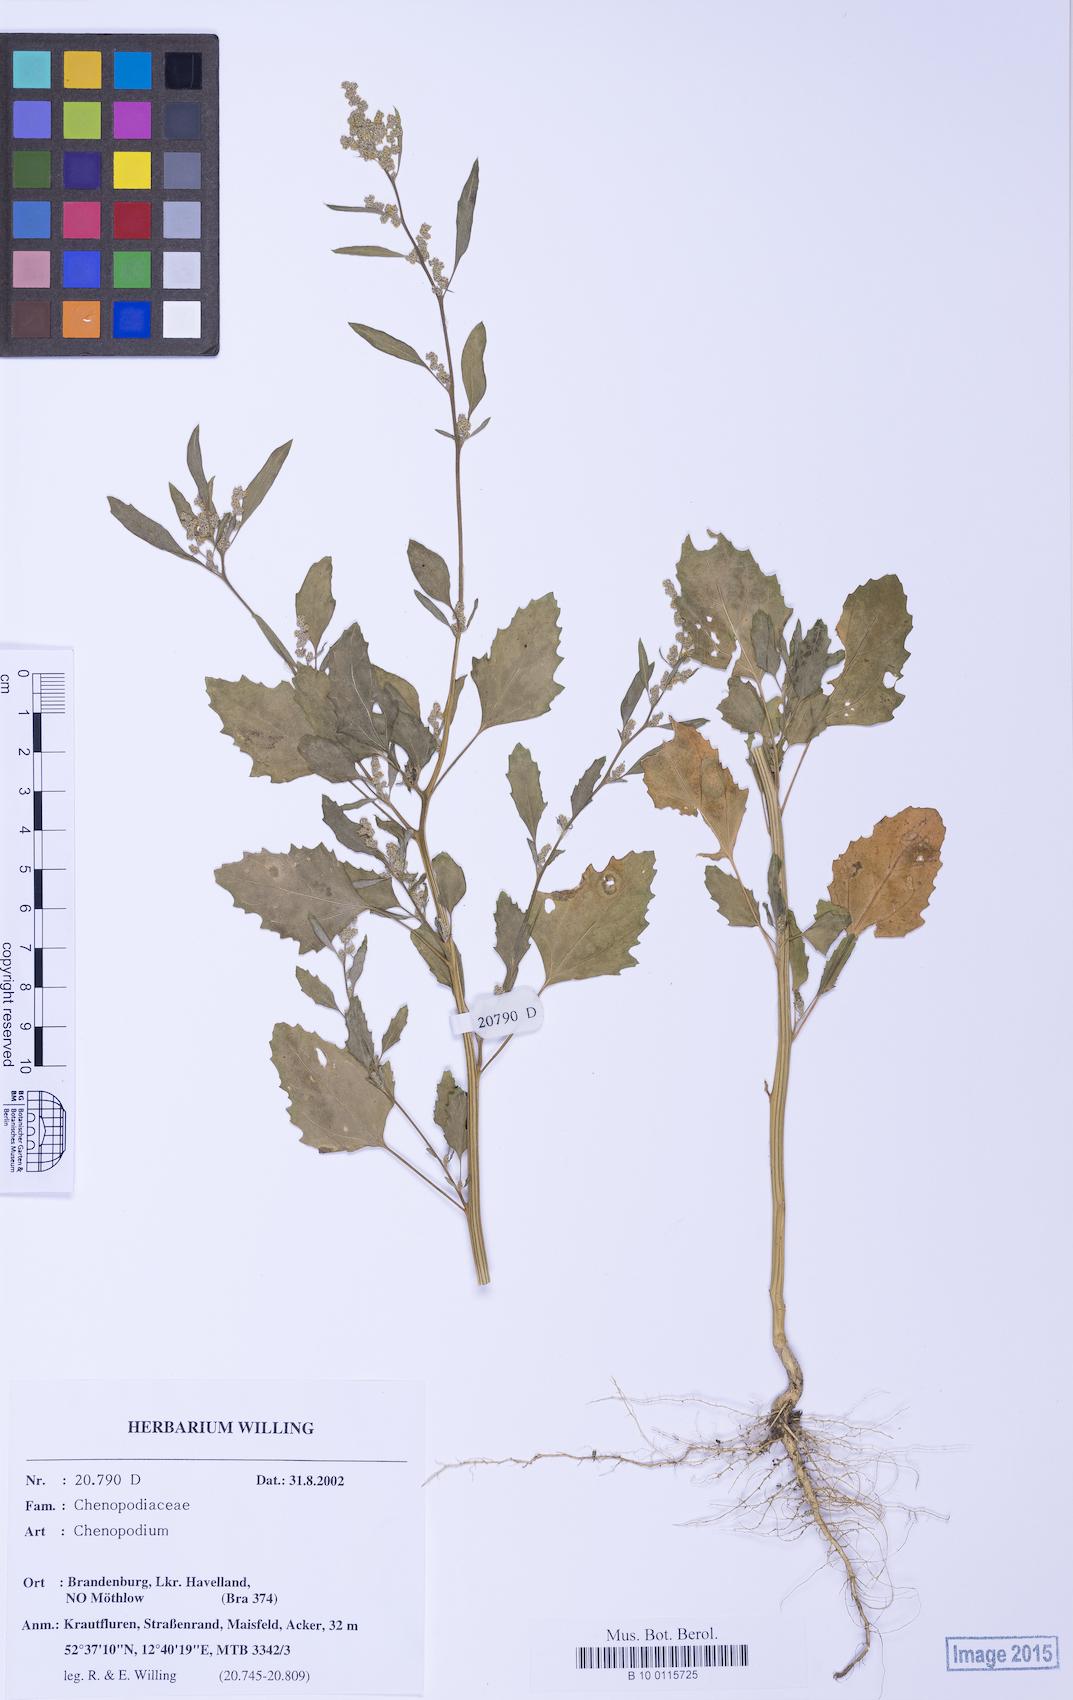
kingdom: Plantae
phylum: Tracheophyta
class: Magnoliopsida
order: Caryophyllales
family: Amaranthaceae
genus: Chenopodium
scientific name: Chenopodium album
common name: Fat-hen
